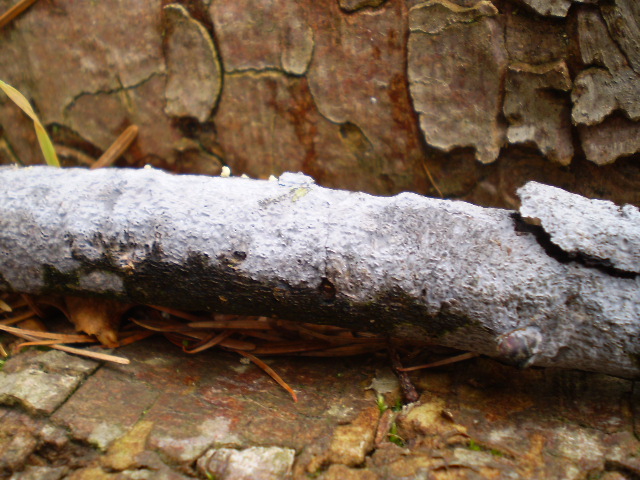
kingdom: Fungi
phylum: Basidiomycota
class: Agaricomycetes
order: Russulales
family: Peniophoraceae
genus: Peniophora
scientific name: Peniophora lycii
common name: grynet voksskind
